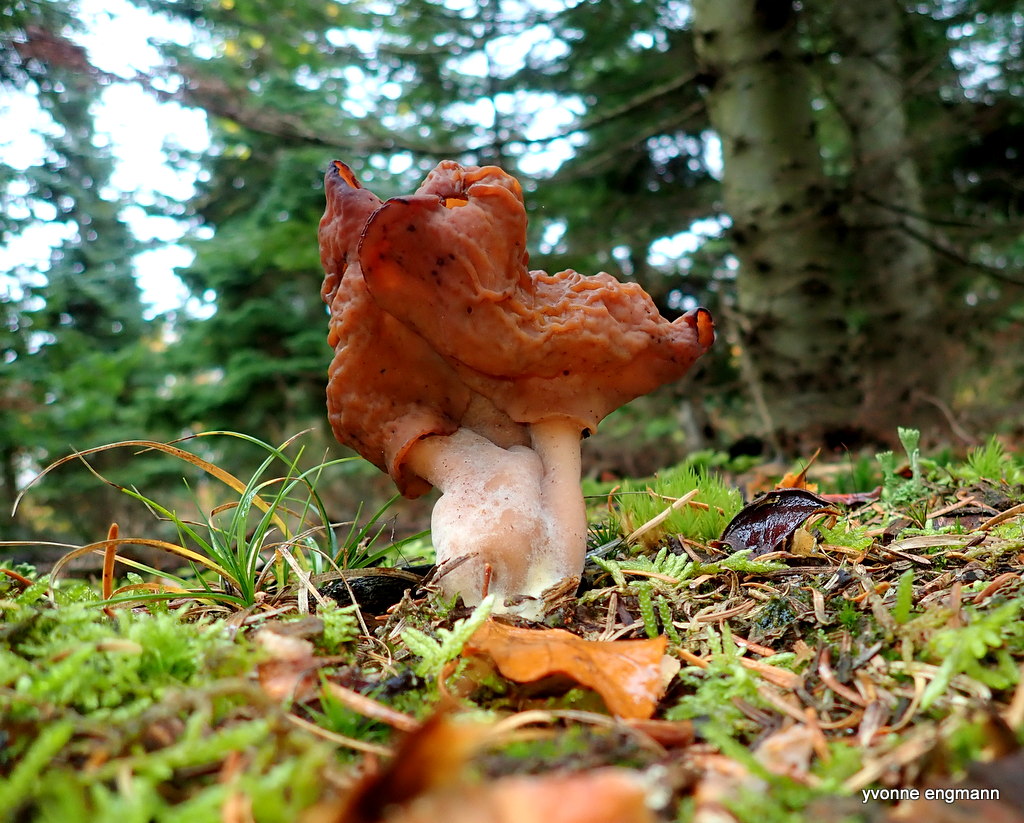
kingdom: Fungi
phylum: Ascomycota
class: Pezizomycetes
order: Pezizales
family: Discinaceae
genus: Gyromitra
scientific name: Gyromitra infula
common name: bispehue-stenmorkel
